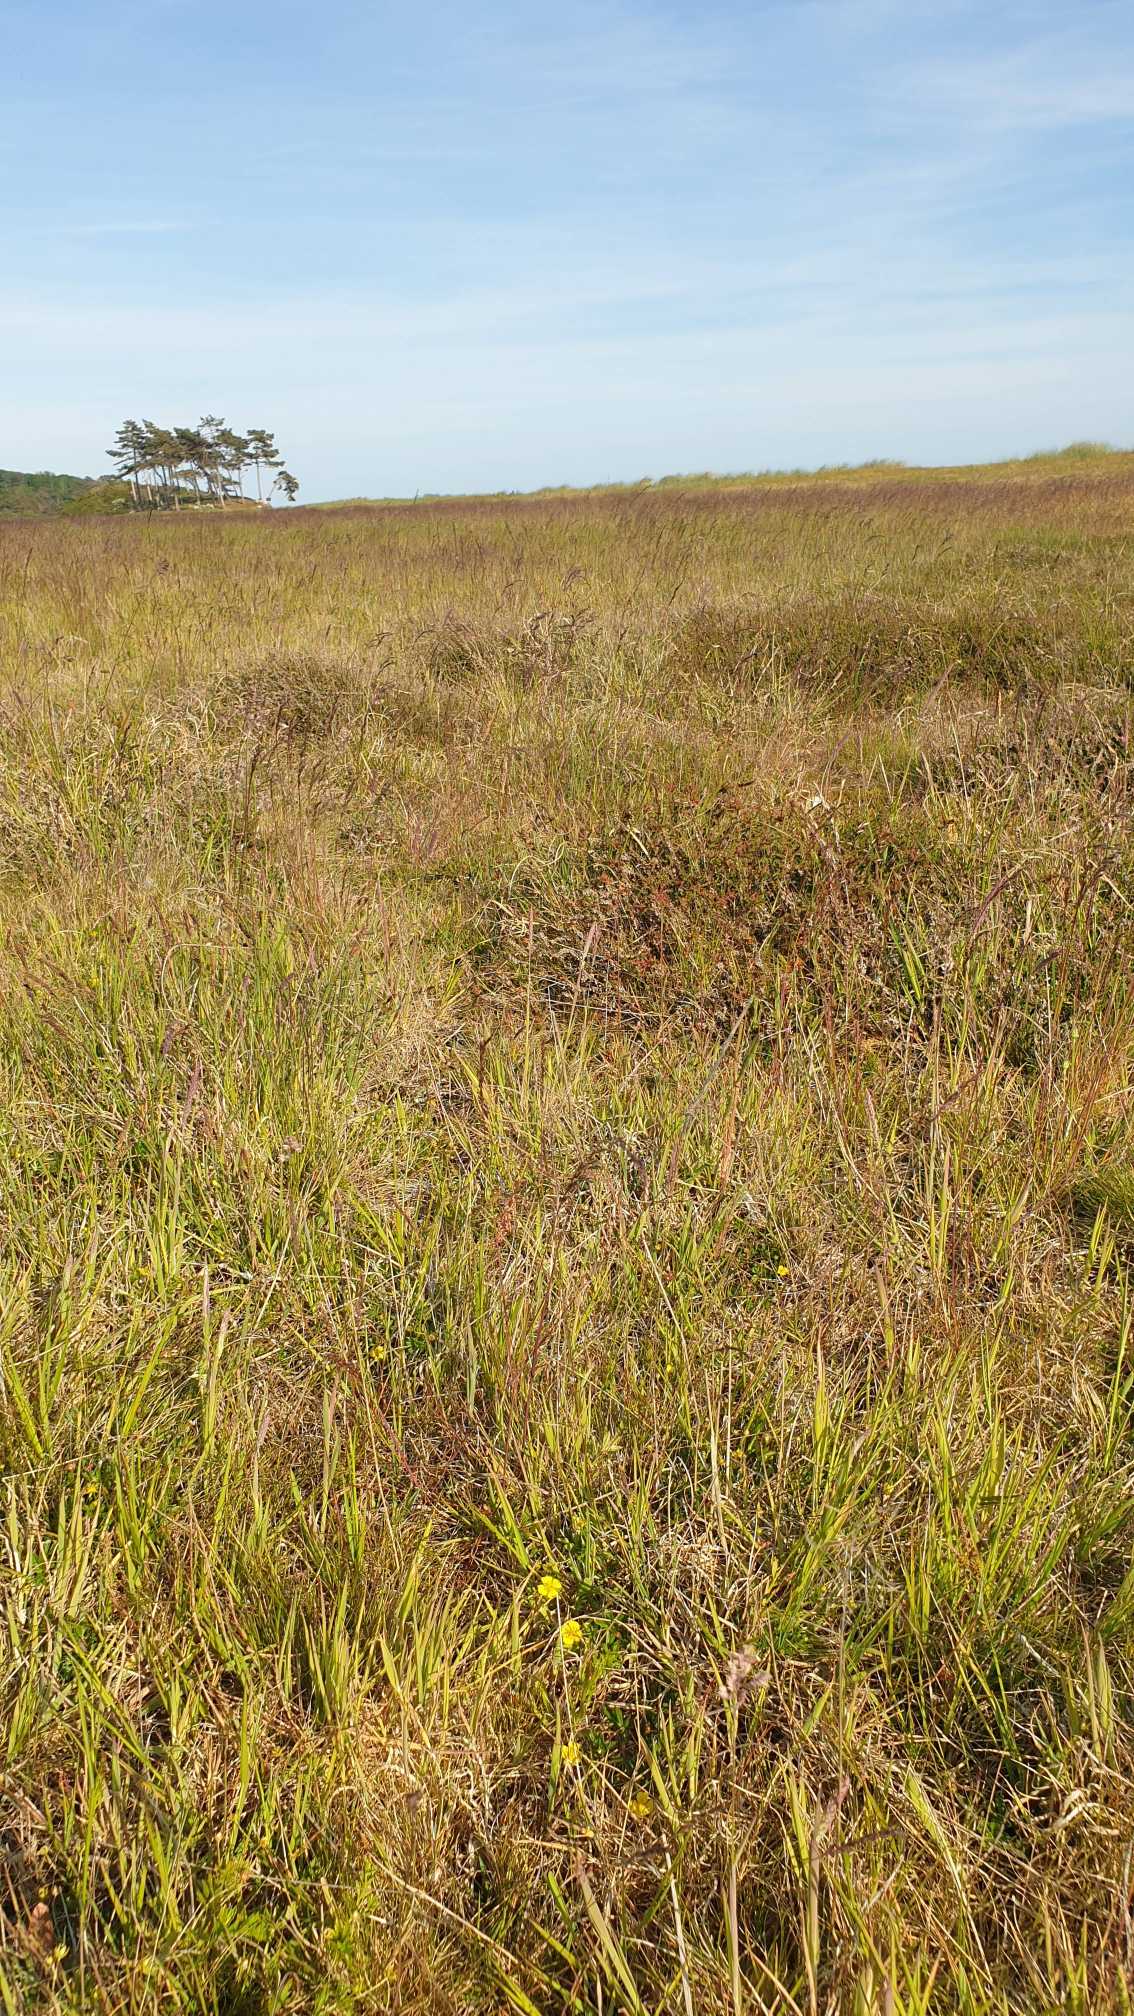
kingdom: Plantae
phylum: Tracheophyta
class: Magnoliopsida
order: Rosales
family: Rosaceae
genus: Potentilla
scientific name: Potentilla erecta
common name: Tormentil
